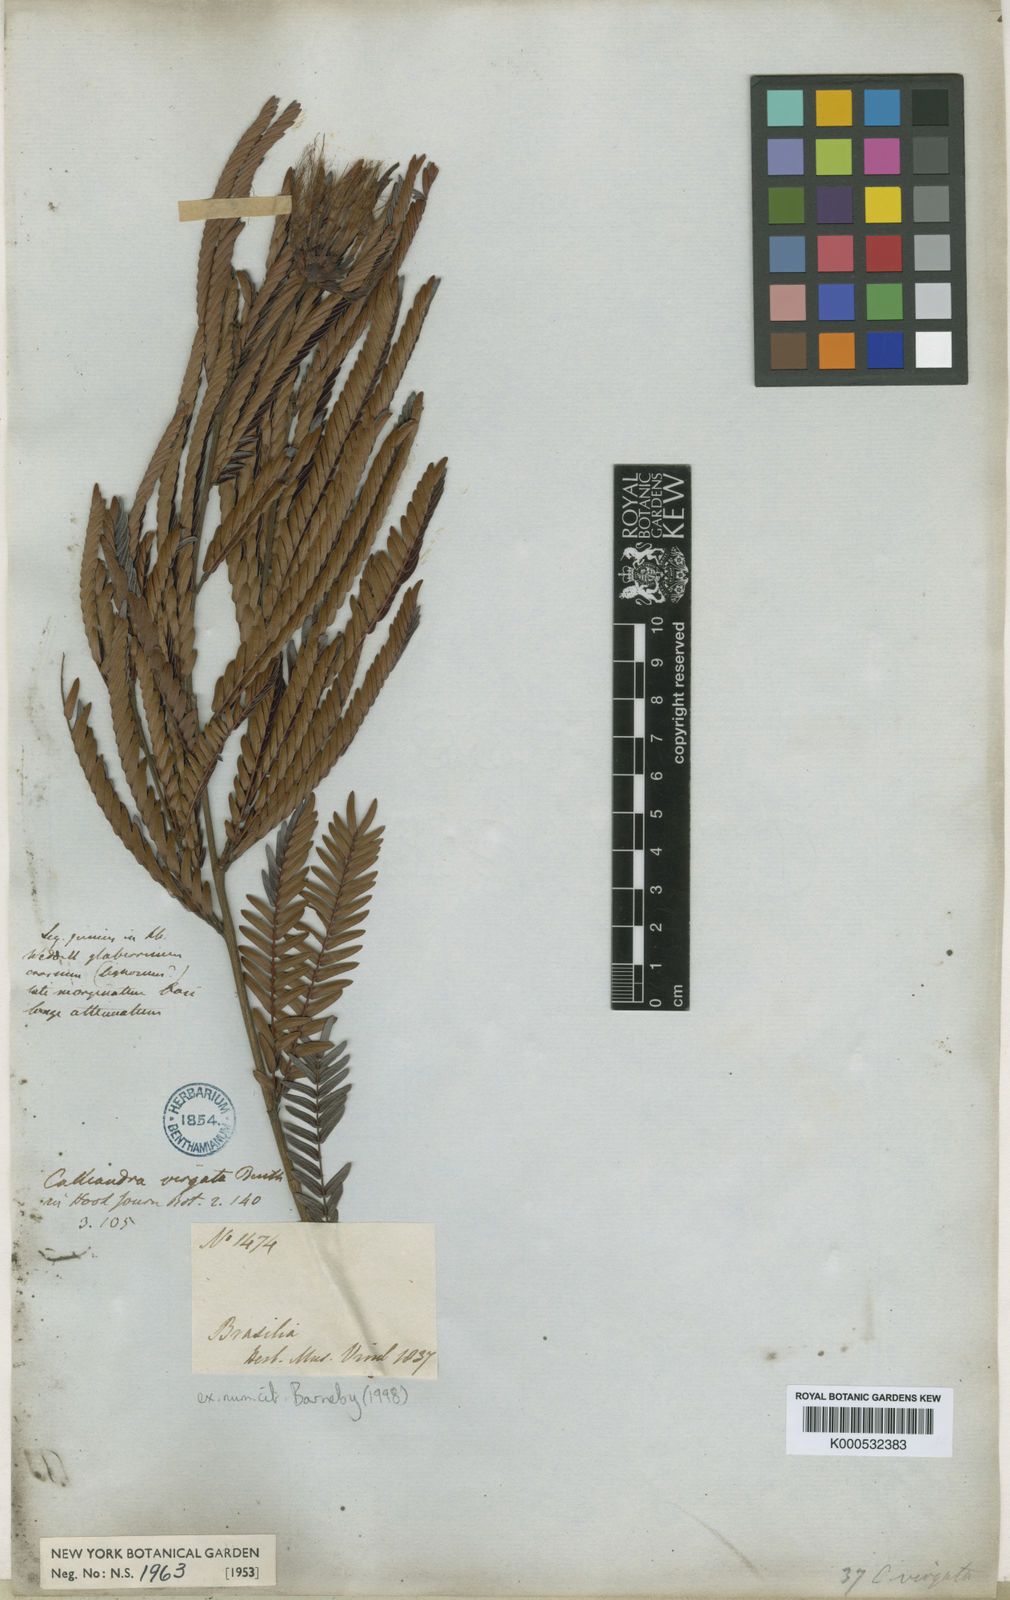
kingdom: Plantae
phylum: Tracheophyta
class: Magnoliopsida
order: Fabales
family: Fabaceae
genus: Calliandra
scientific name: Calliandra virgata
